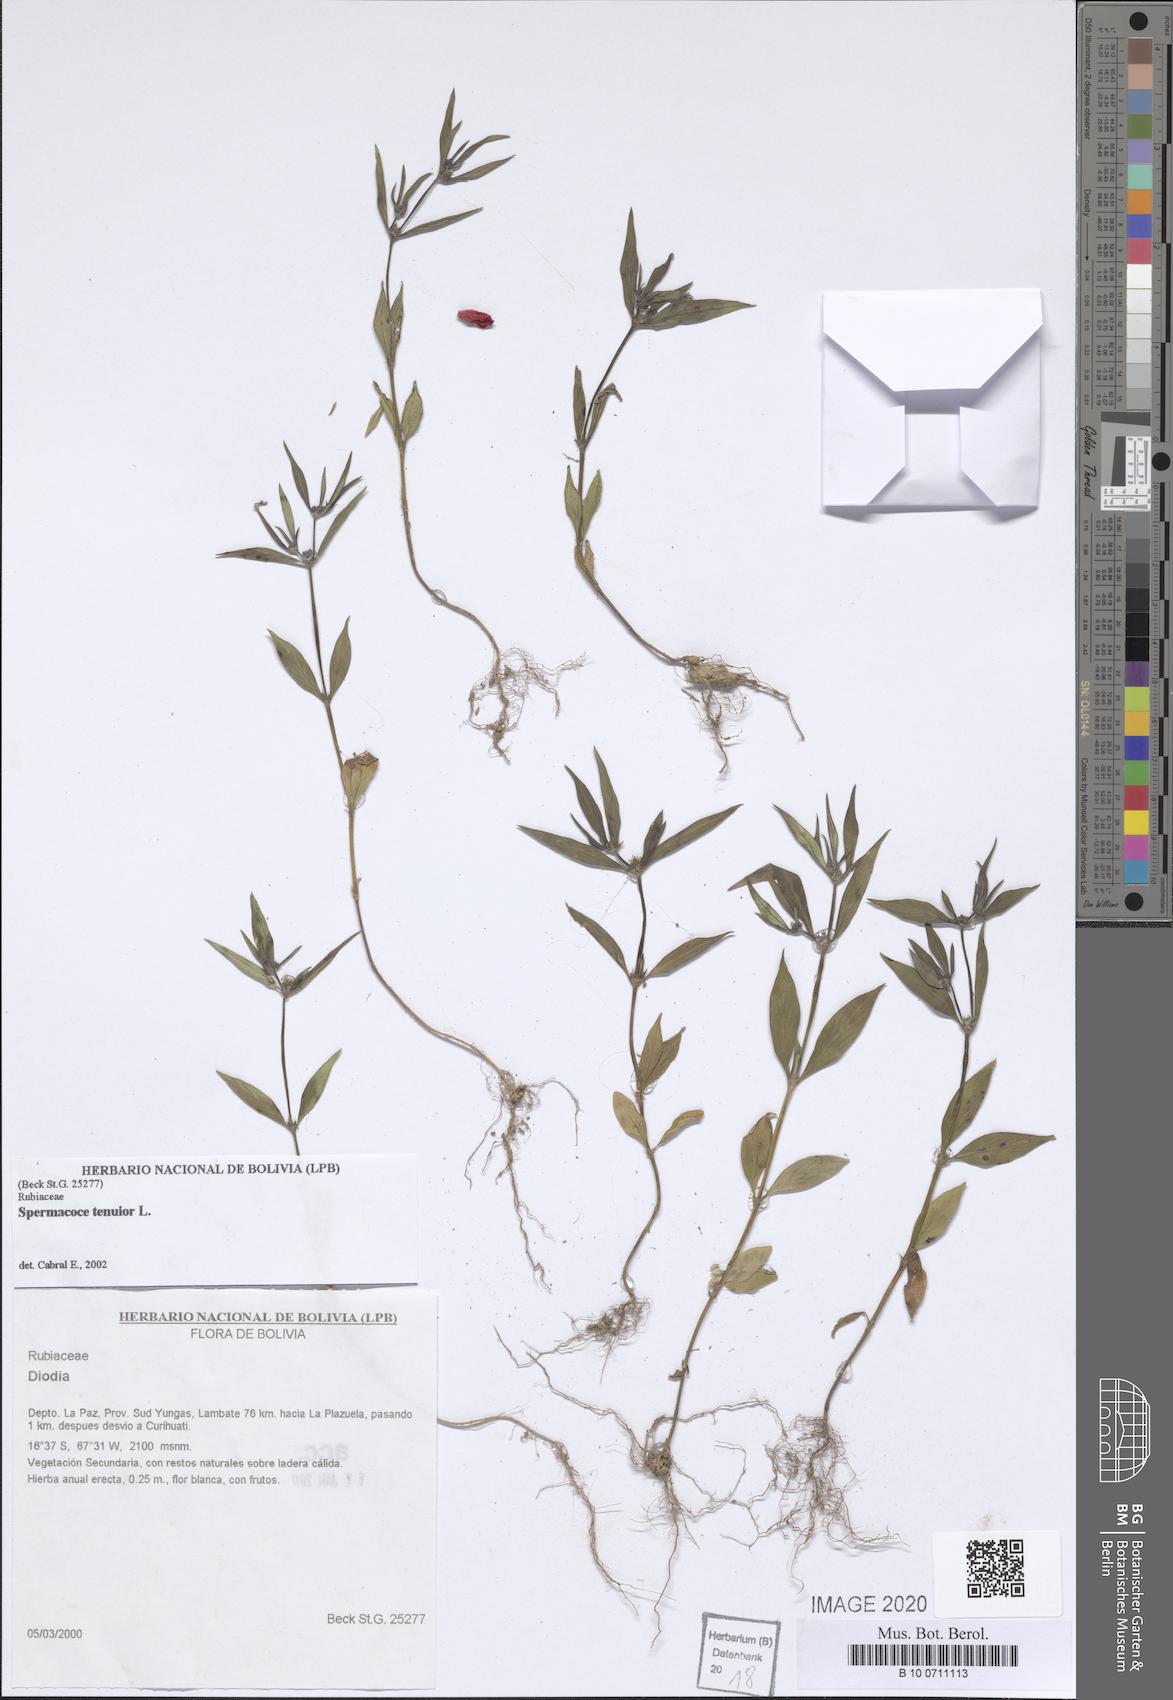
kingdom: Plantae
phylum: Tracheophyta
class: Magnoliopsida
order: Gentianales
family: Rubiaceae
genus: Spermacoce
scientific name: Spermacoce tenuior
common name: River false buttonweed
